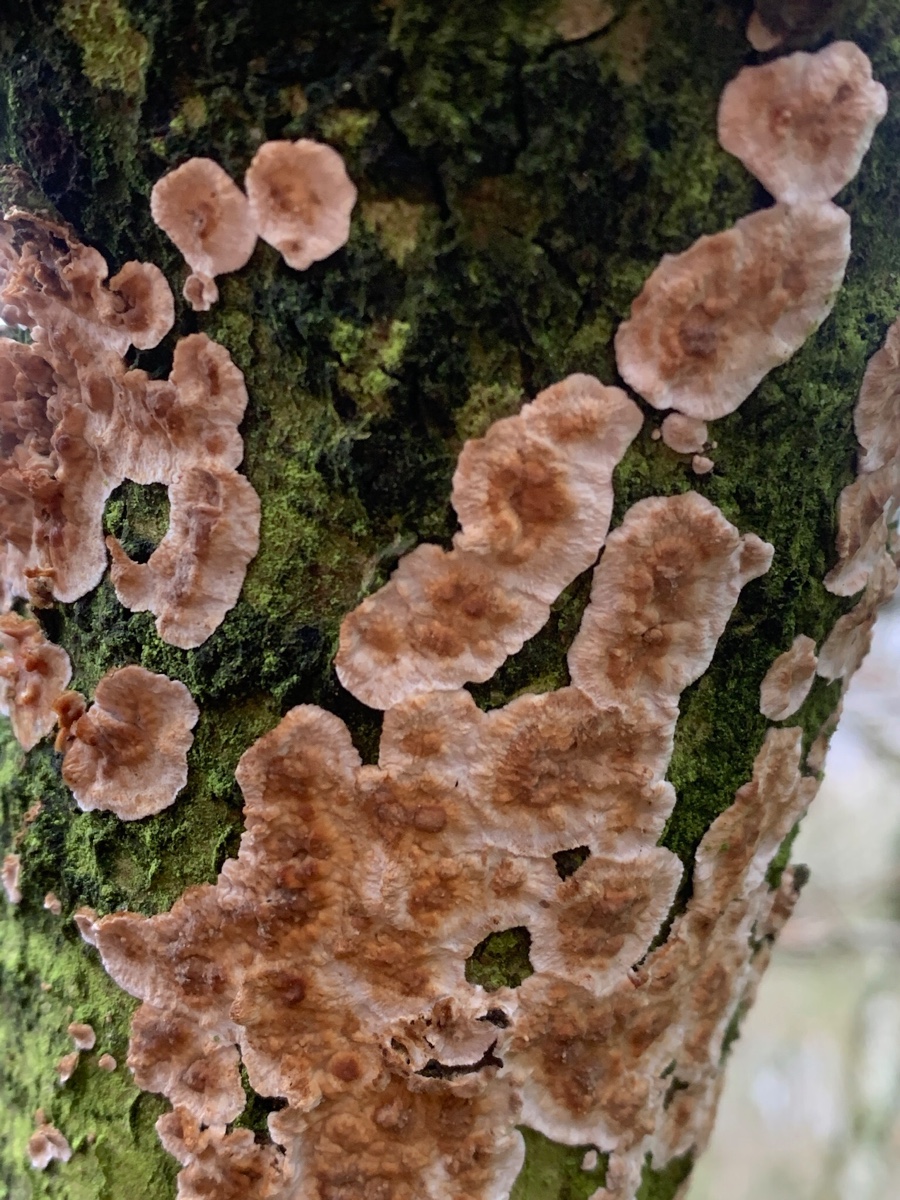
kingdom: Fungi
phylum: Basidiomycota
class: Agaricomycetes
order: Russulales
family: Stereaceae
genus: Stereum
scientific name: Stereum rugosum
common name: rynket lædersvamp
